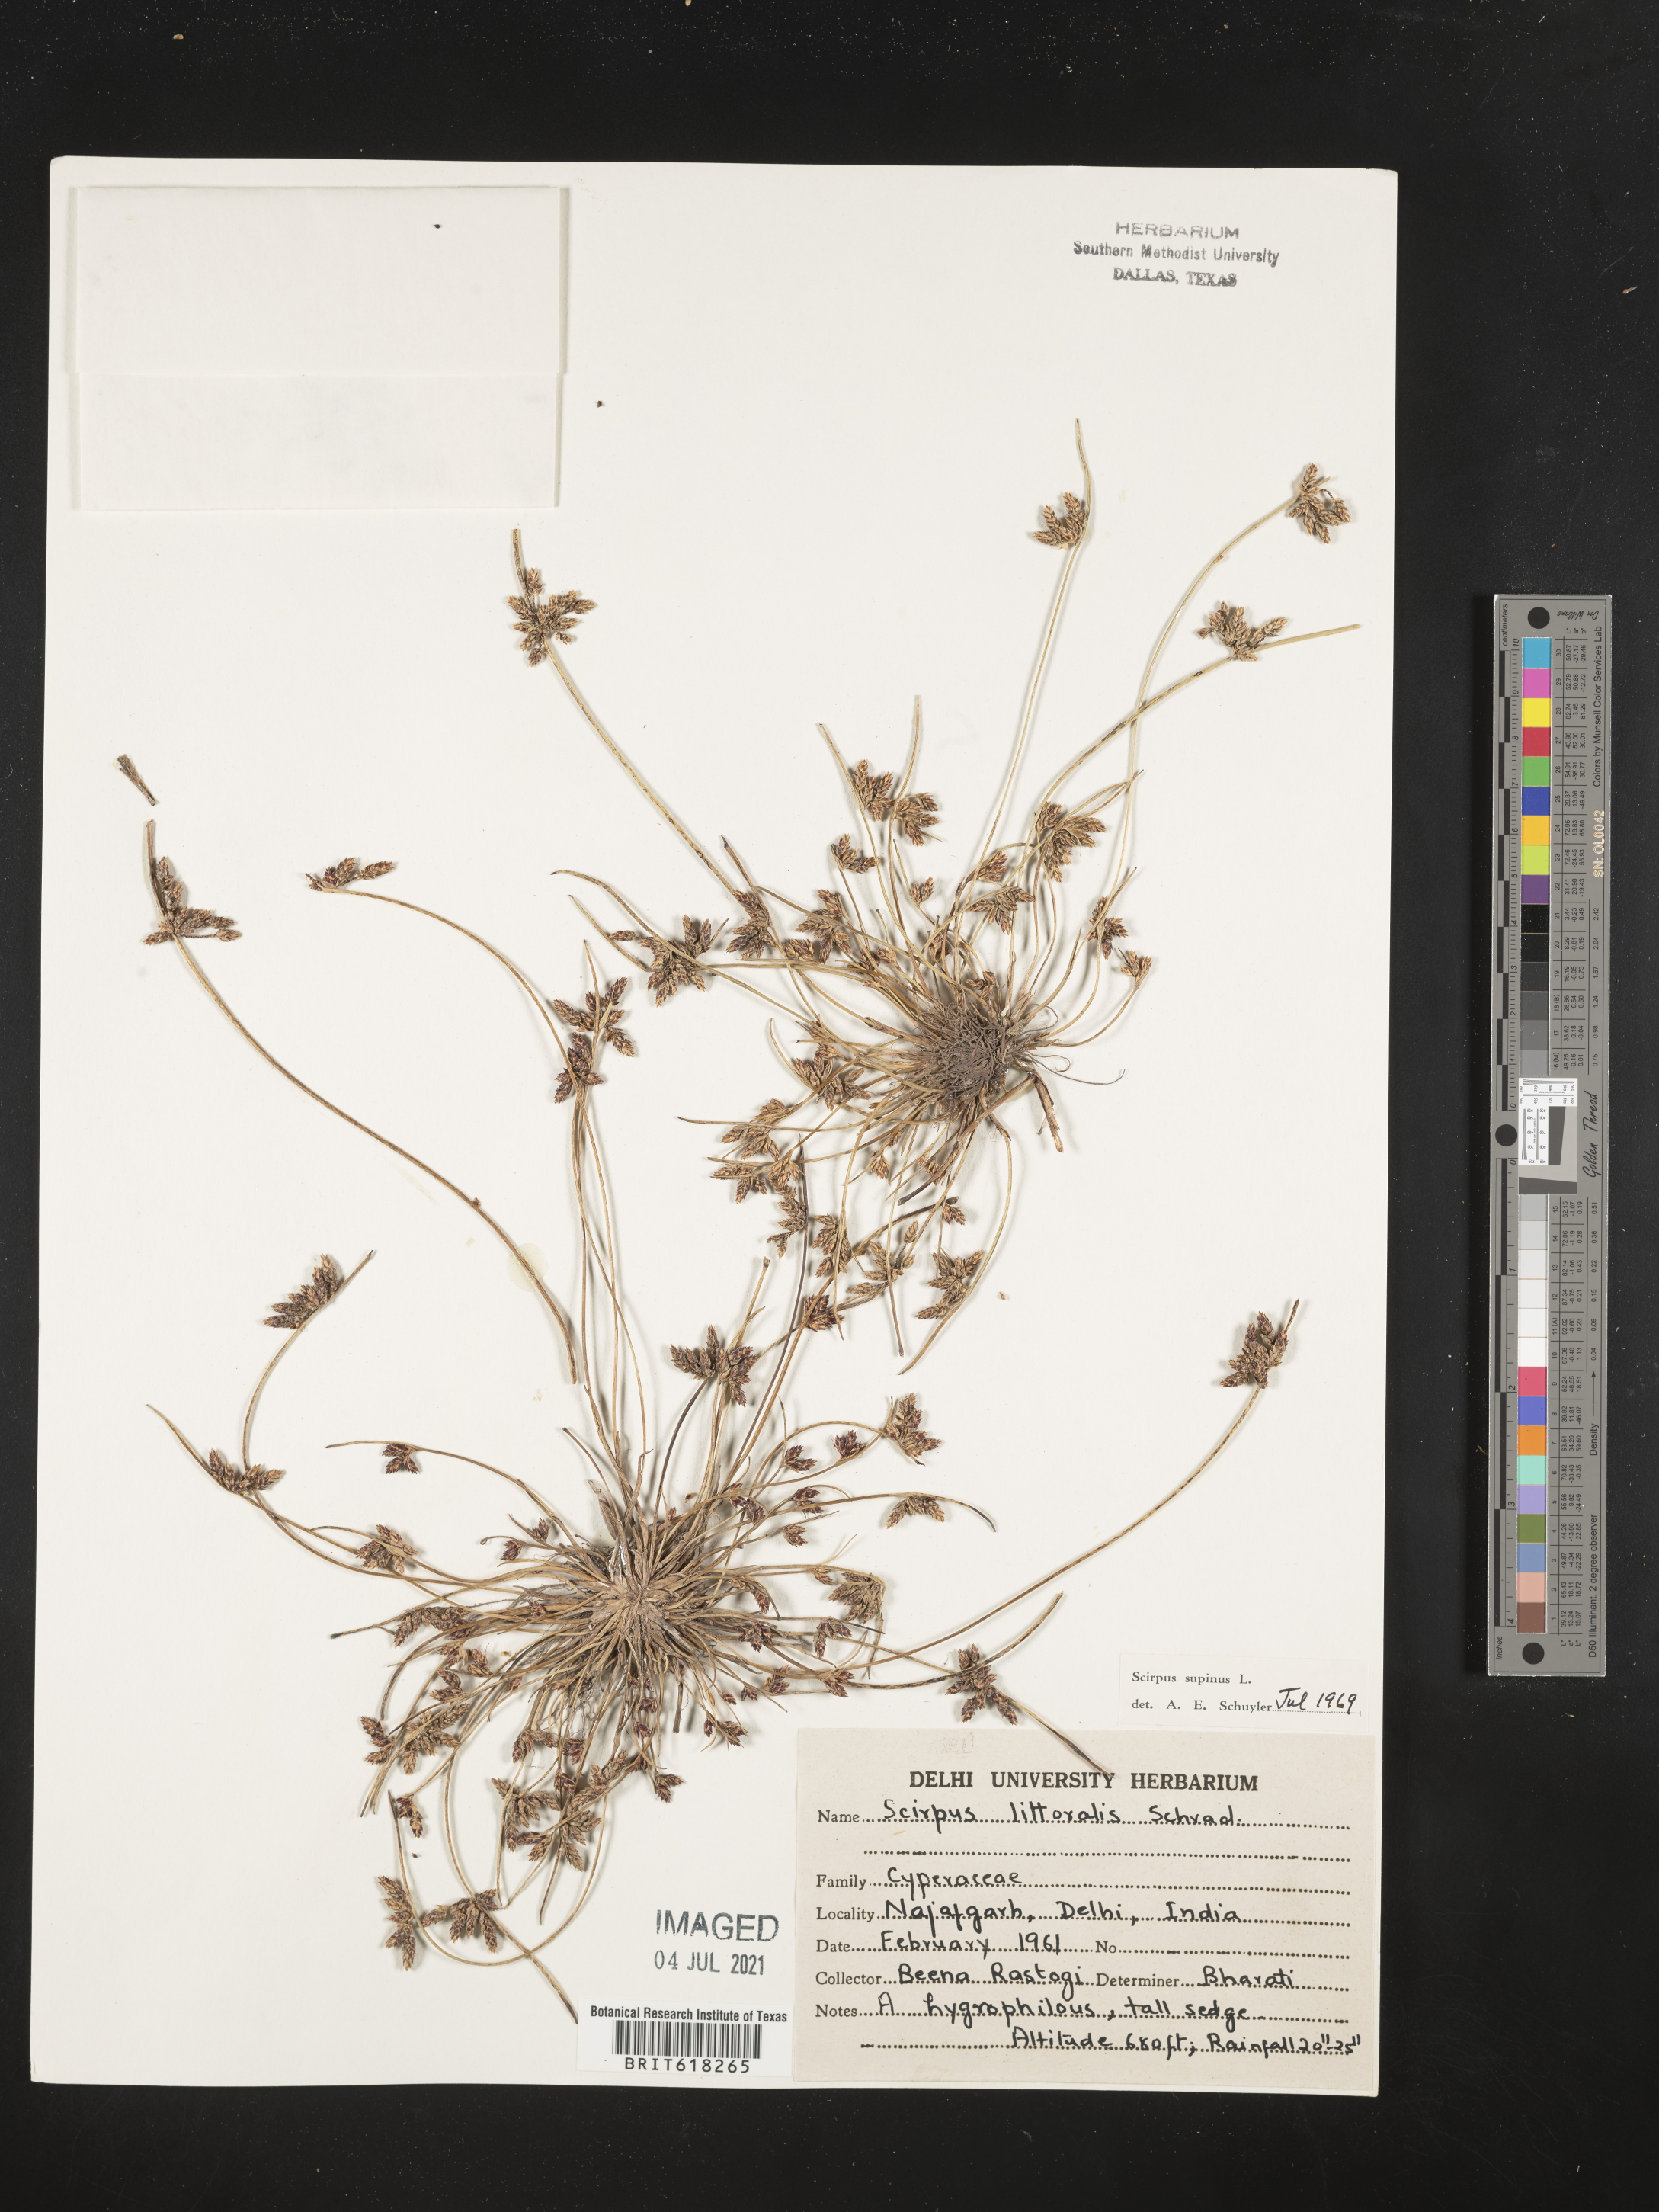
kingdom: Plantae
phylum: Tracheophyta
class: Liliopsida
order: Poales
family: Cyperaceae
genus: Schoenoplectus
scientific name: Schoenoplectus litoralis
